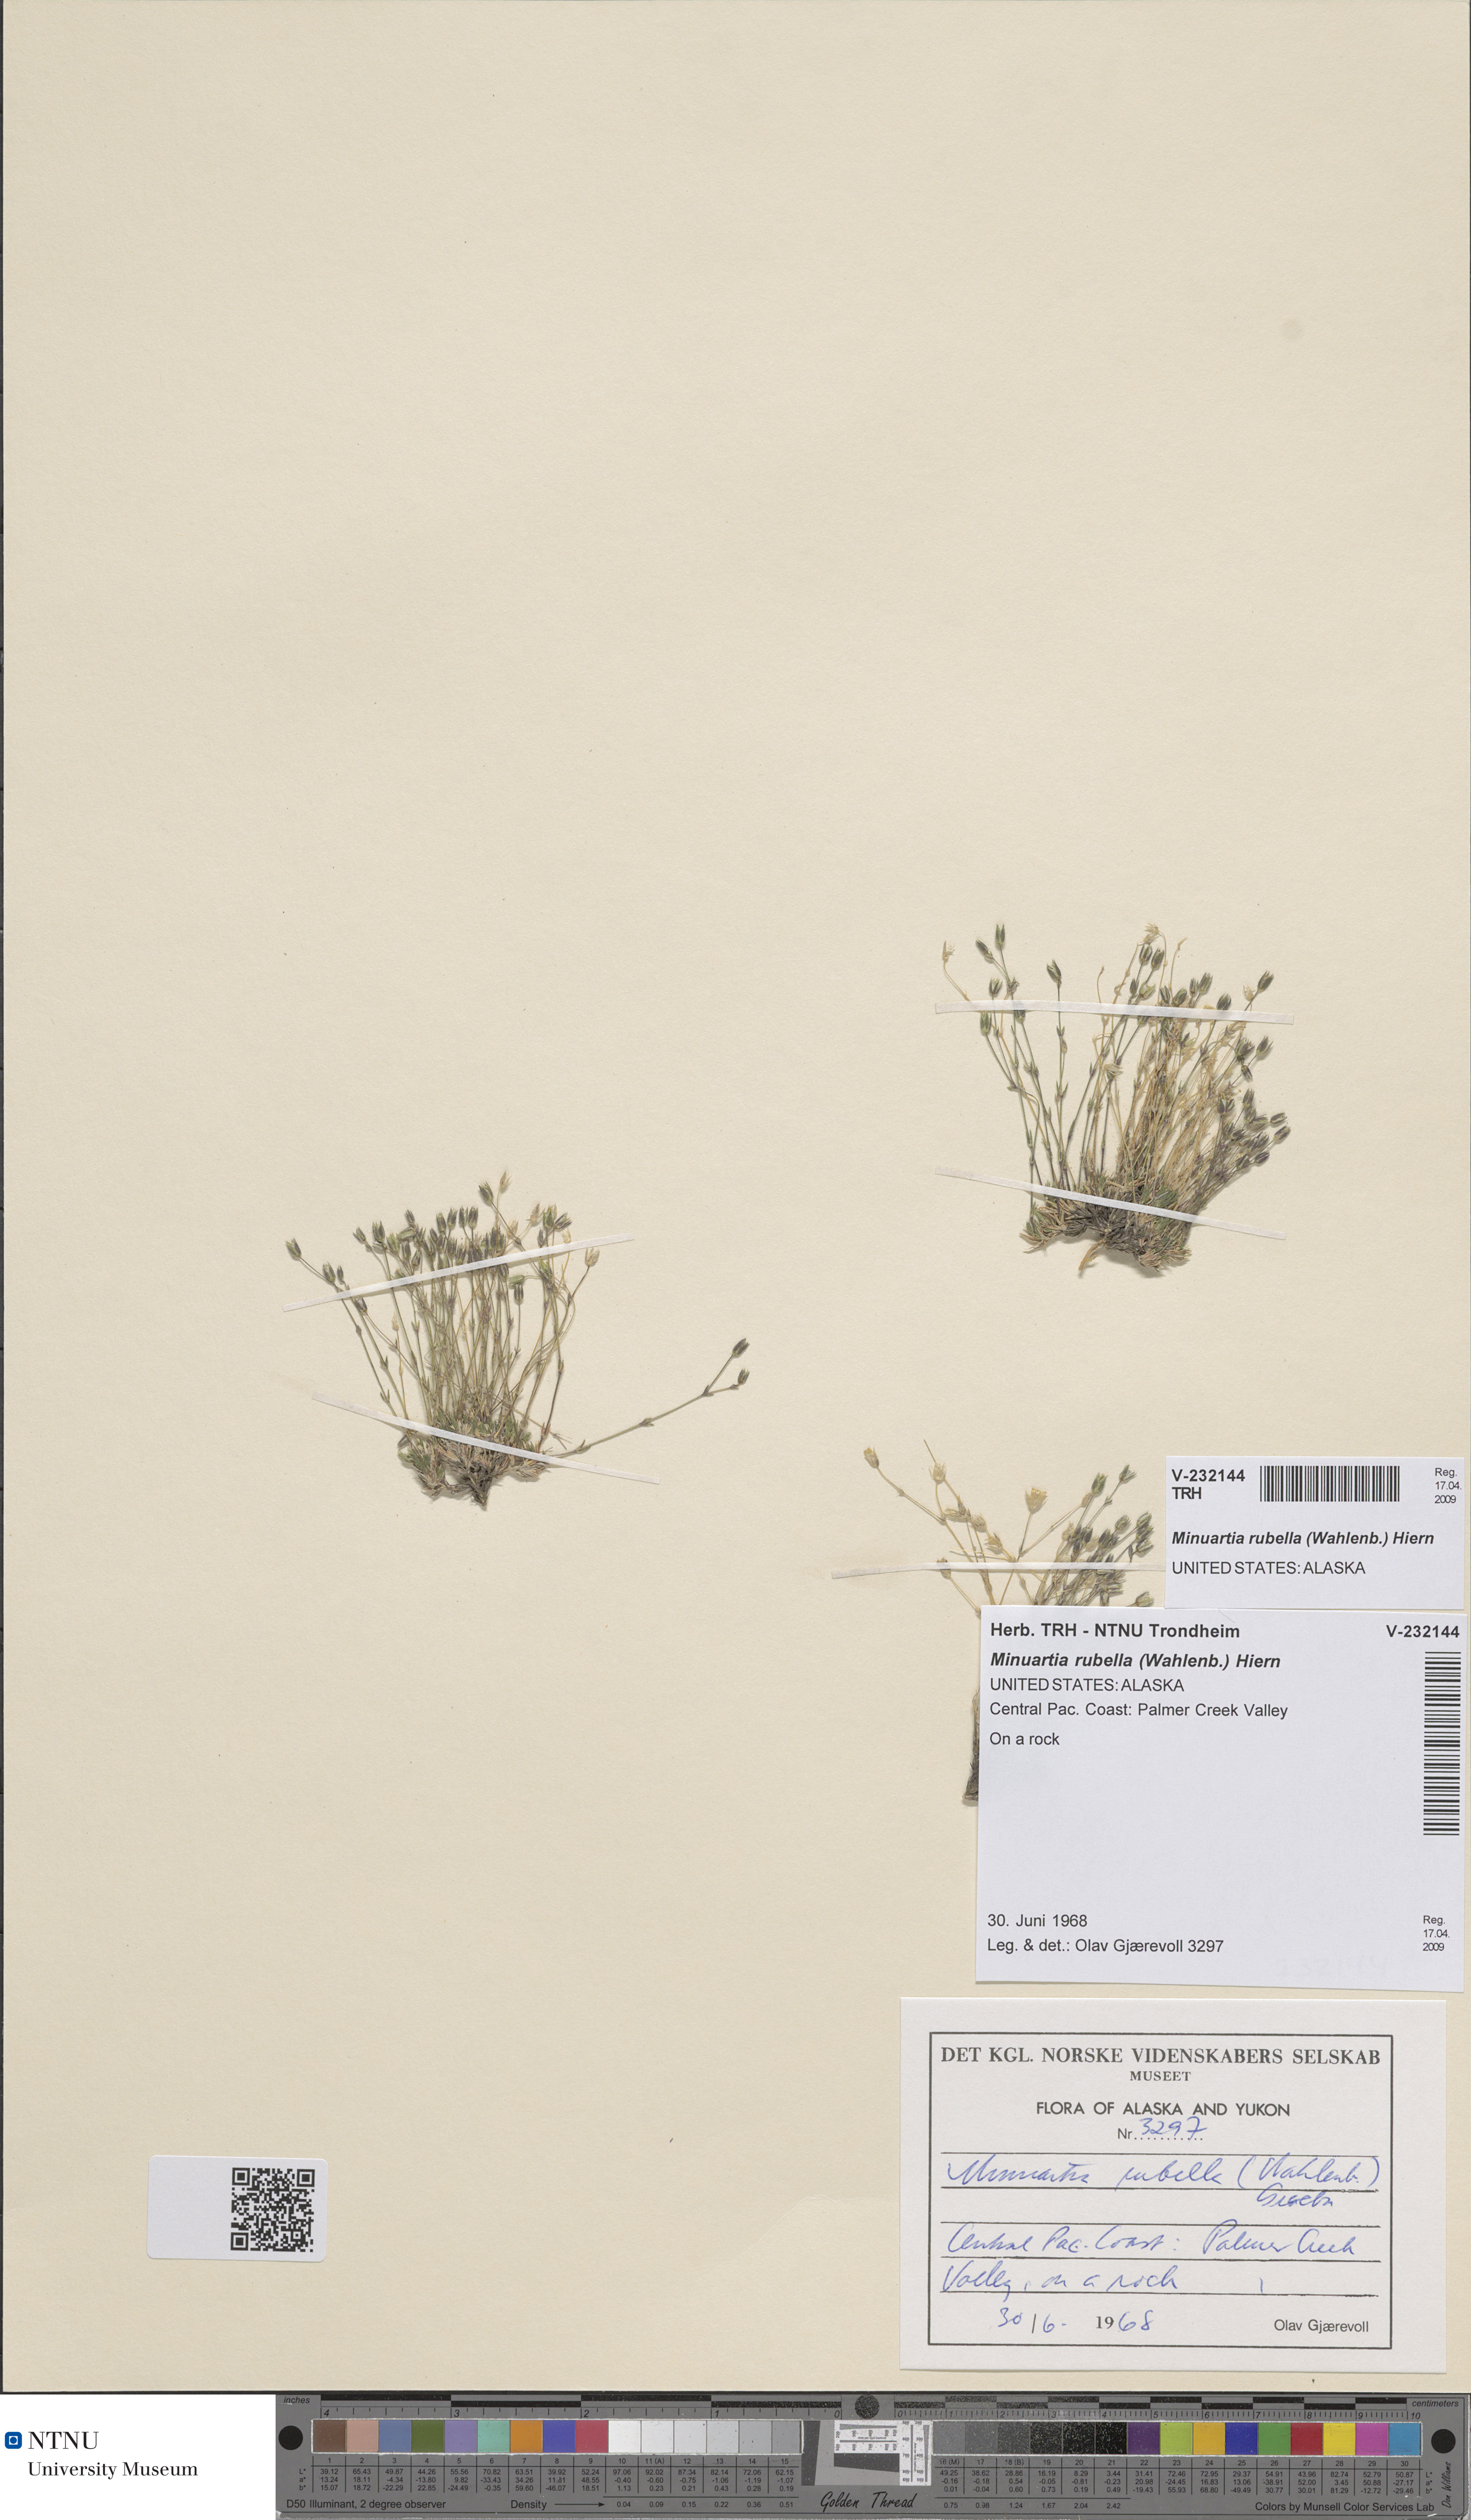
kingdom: Plantae
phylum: Tracheophyta
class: Magnoliopsida
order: Caryophyllales
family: Caryophyllaceae
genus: Sabulina
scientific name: Sabulina rubella
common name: Beautiful sandwort
